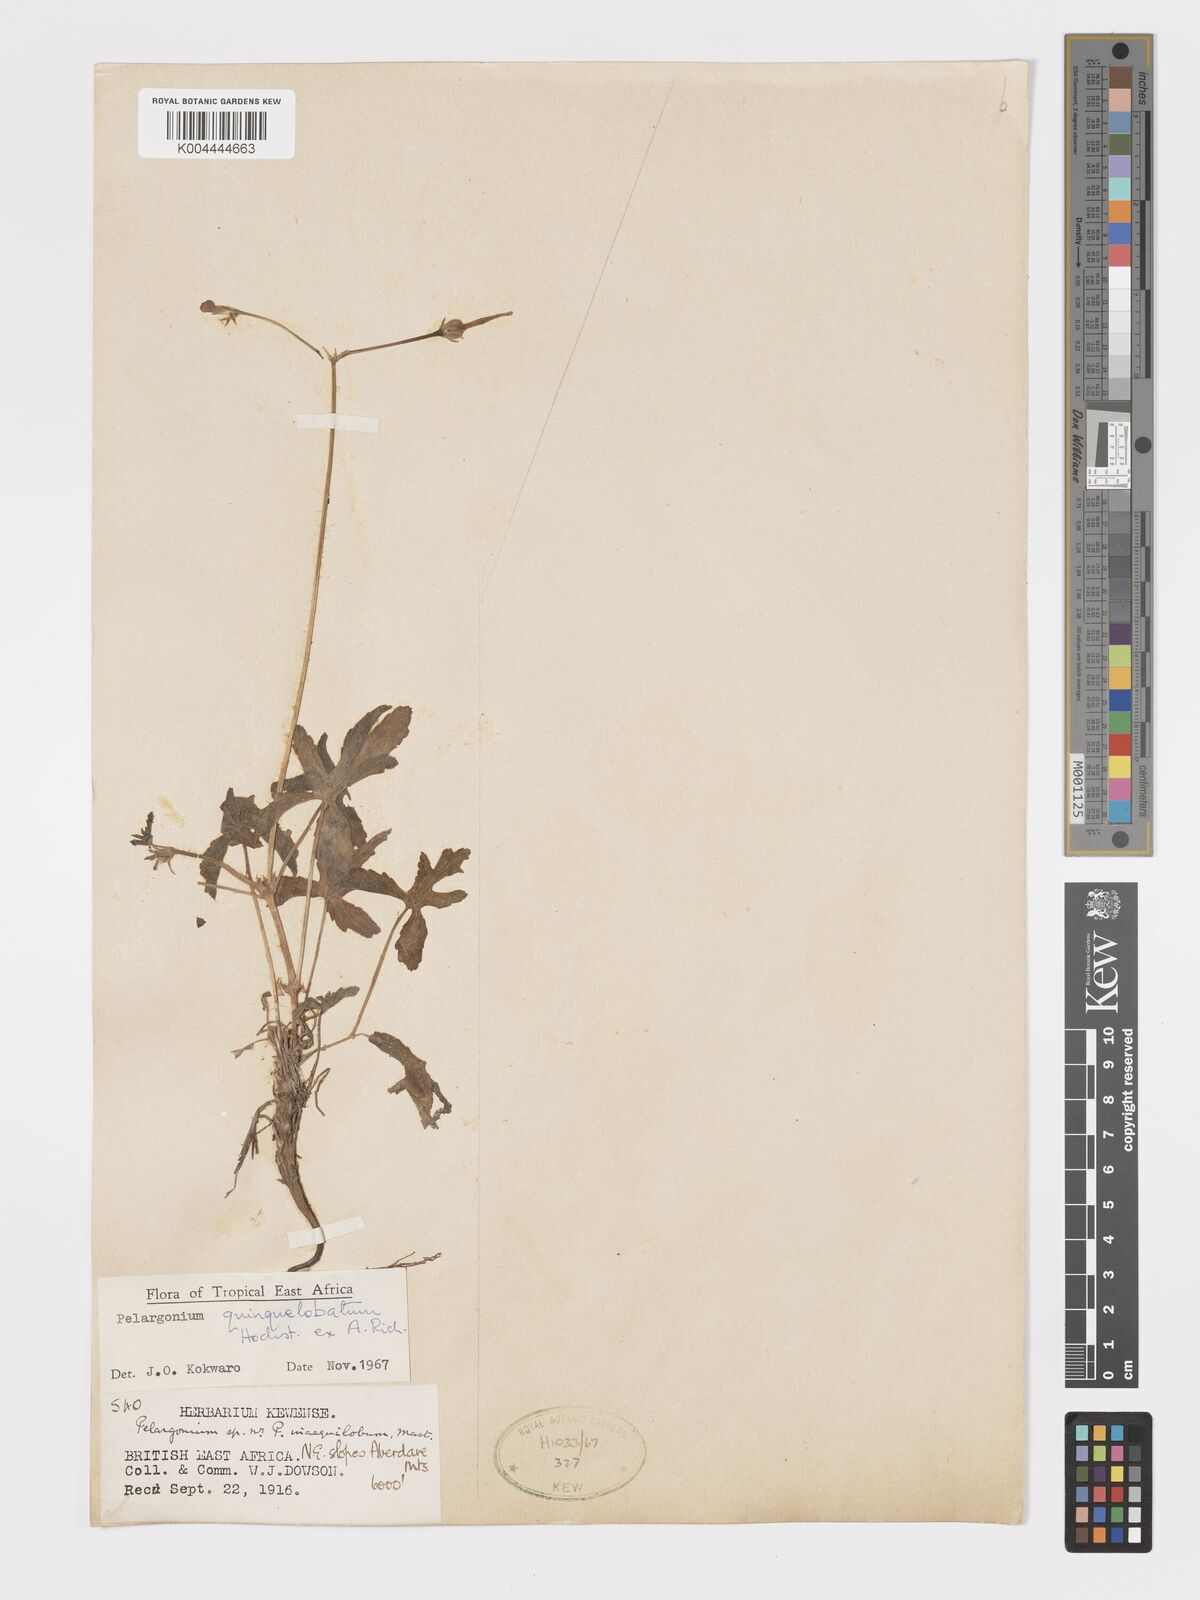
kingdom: Plantae
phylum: Tracheophyta
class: Magnoliopsida
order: Geraniales
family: Geraniaceae
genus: Pelargonium
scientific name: Pelargonium quinquelobatum
